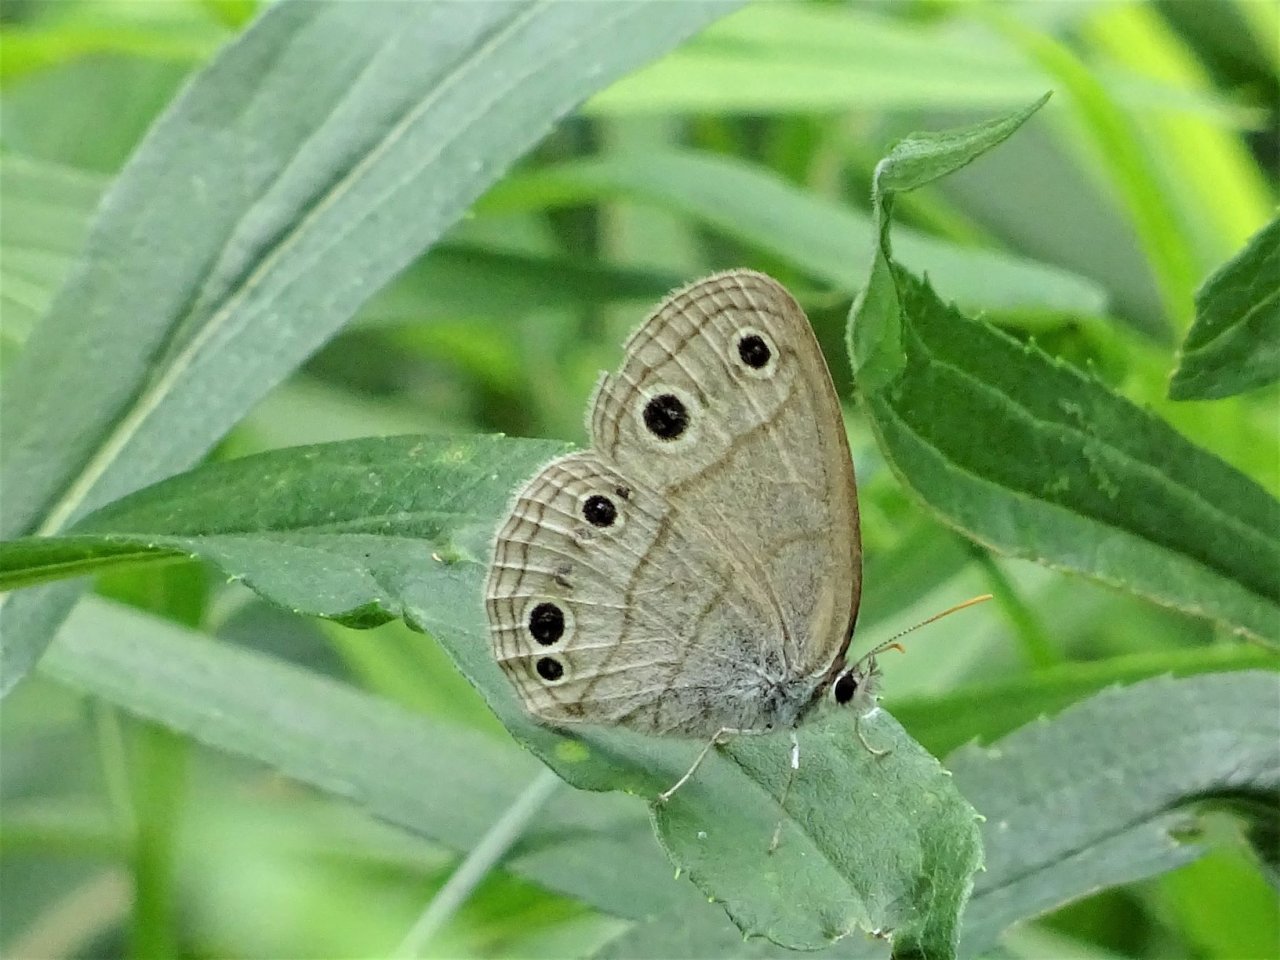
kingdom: Animalia
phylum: Arthropoda
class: Insecta
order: Lepidoptera
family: Nymphalidae
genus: Euptychia
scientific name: Euptychia cymela
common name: Little Wood Satyr
